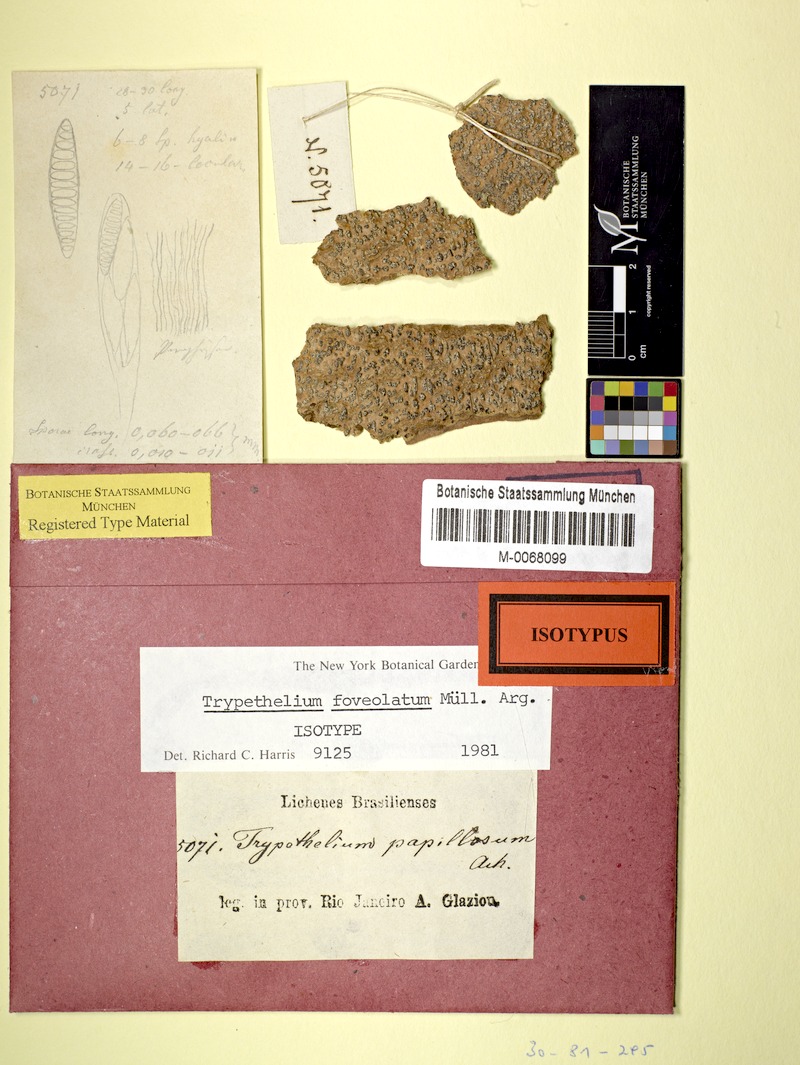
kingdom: Fungi
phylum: Ascomycota
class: Dothideomycetes
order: Trypetheliales
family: Trypetheliaceae
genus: Trypethelium
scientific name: Trypethelium
